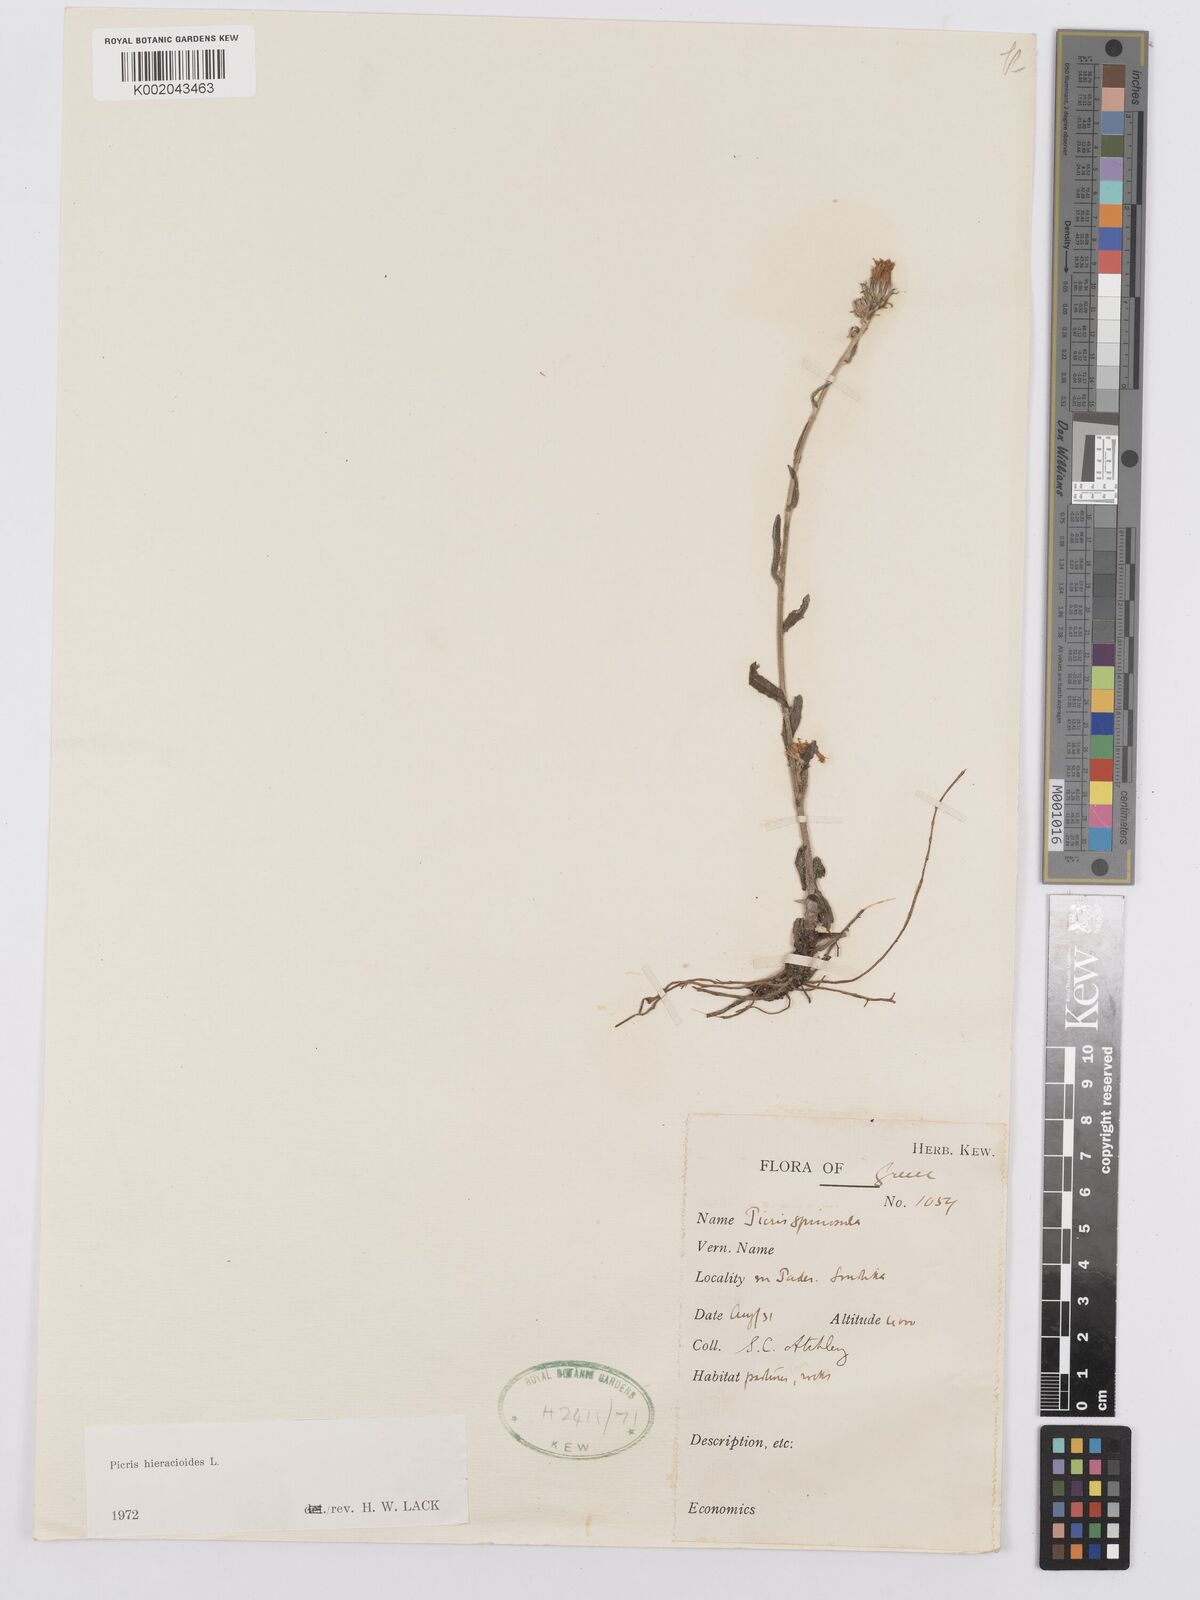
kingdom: Plantae
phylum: Tracheophyta
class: Magnoliopsida
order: Asterales
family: Asteraceae
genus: Picris
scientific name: Picris hieracioides
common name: Hawkweed oxtongue
